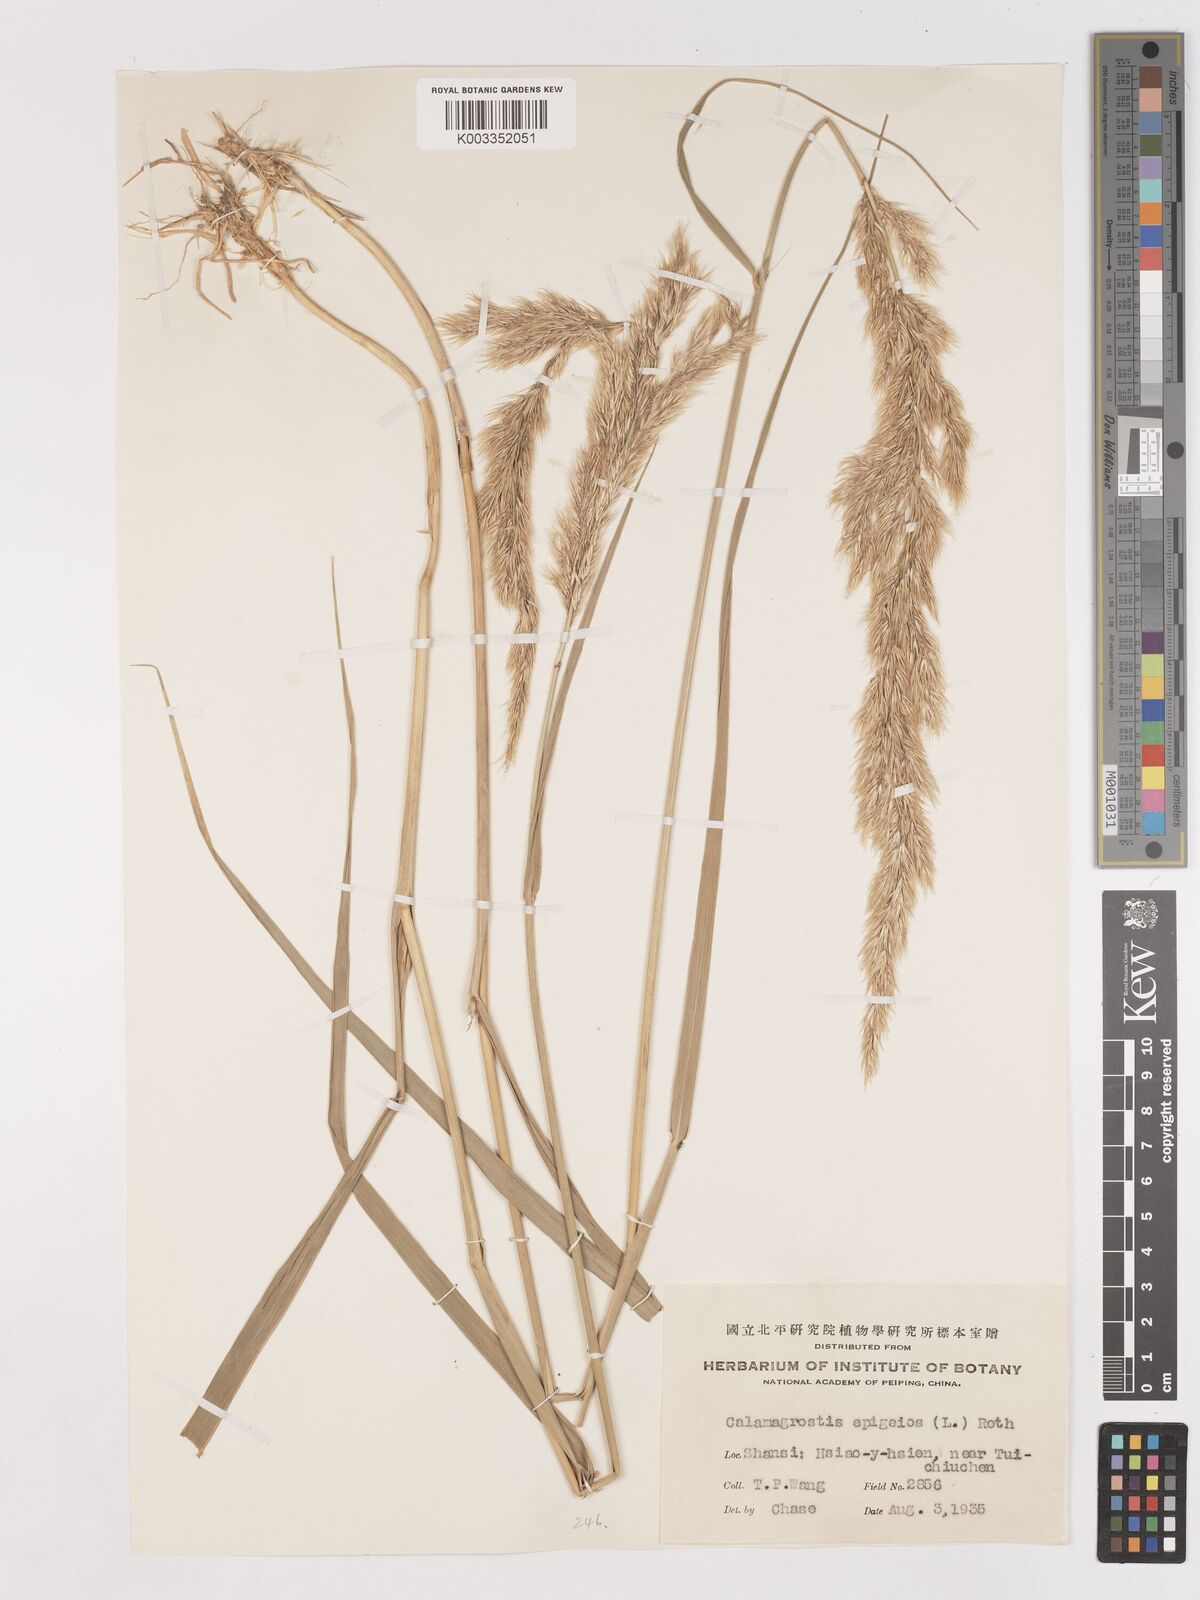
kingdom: Plantae
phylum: Tracheophyta
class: Liliopsida
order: Poales
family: Poaceae
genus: Calamagrostis
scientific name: Calamagrostis epigejos
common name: Wood small-reed
